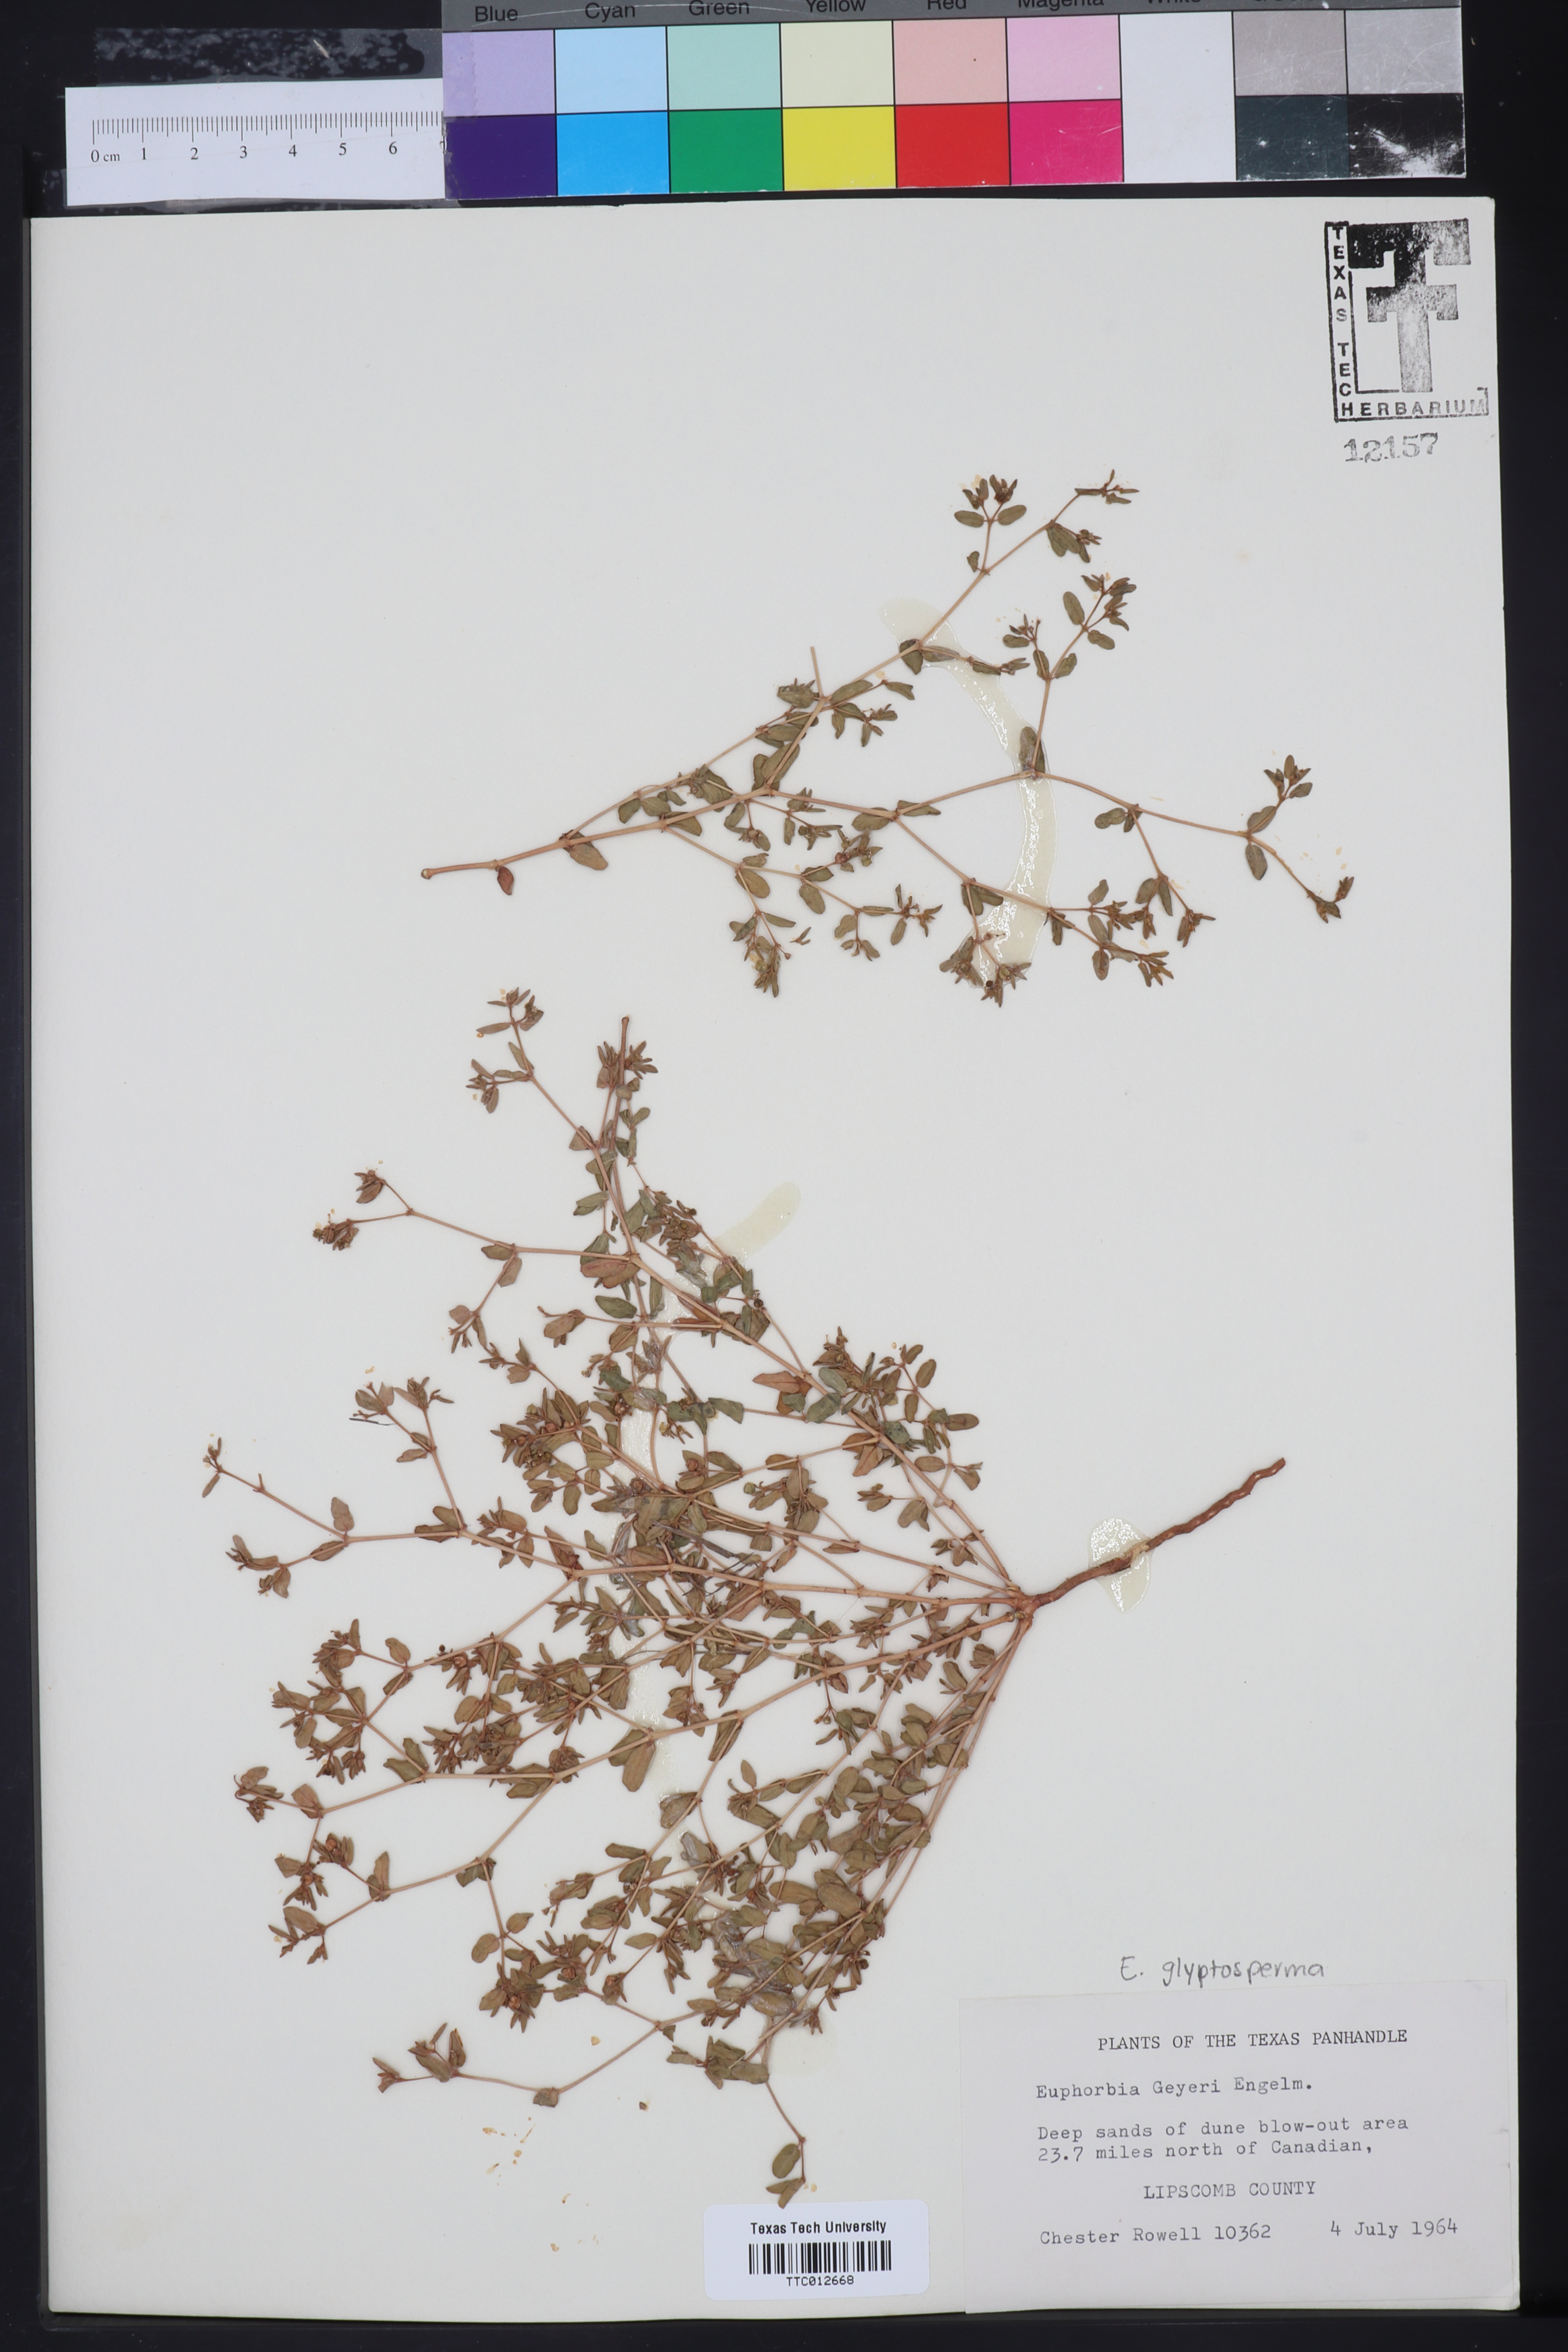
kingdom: Plantae
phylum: Tracheophyta
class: Magnoliopsida
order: Malpighiales
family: Euphorbiaceae
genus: Euphorbia
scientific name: Euphorbia geyeri
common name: Geyer's spurge
